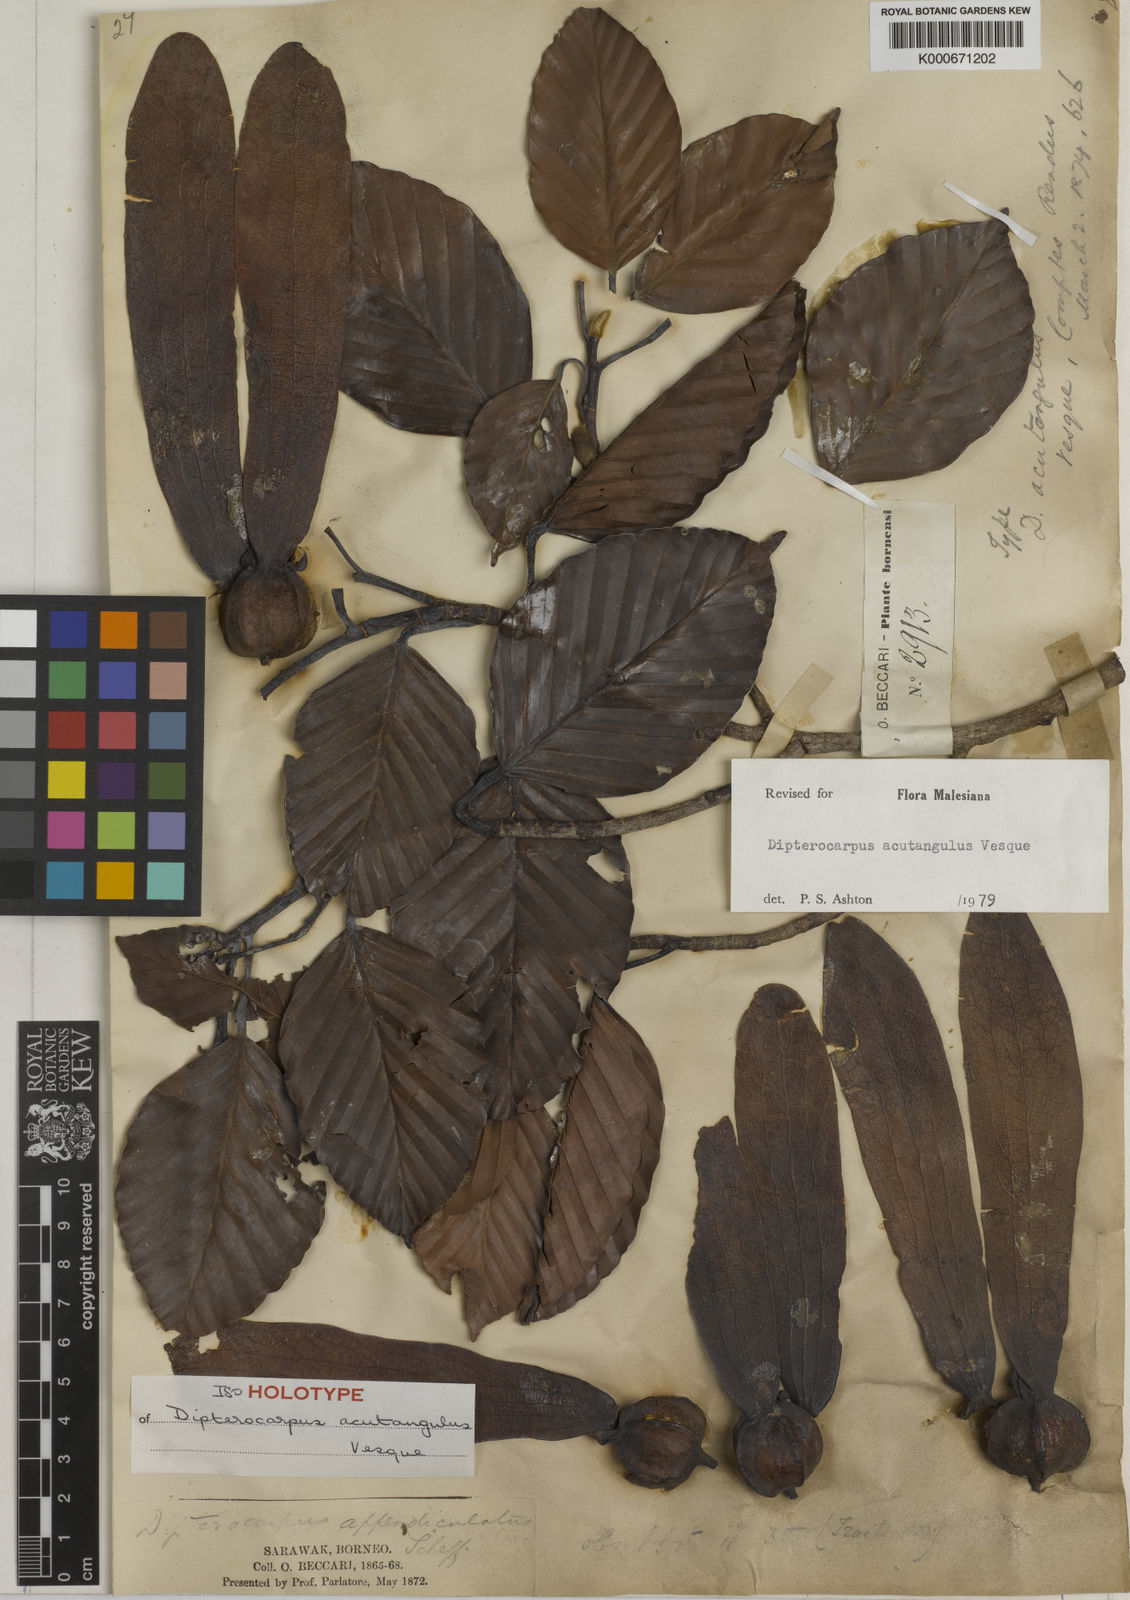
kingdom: Plantae
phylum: Tracheophyta
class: Magnoliopsida
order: Malvales
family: Dipterocarpaceae
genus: Dipterocarpus
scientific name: Dipterocarpus acutangulus
